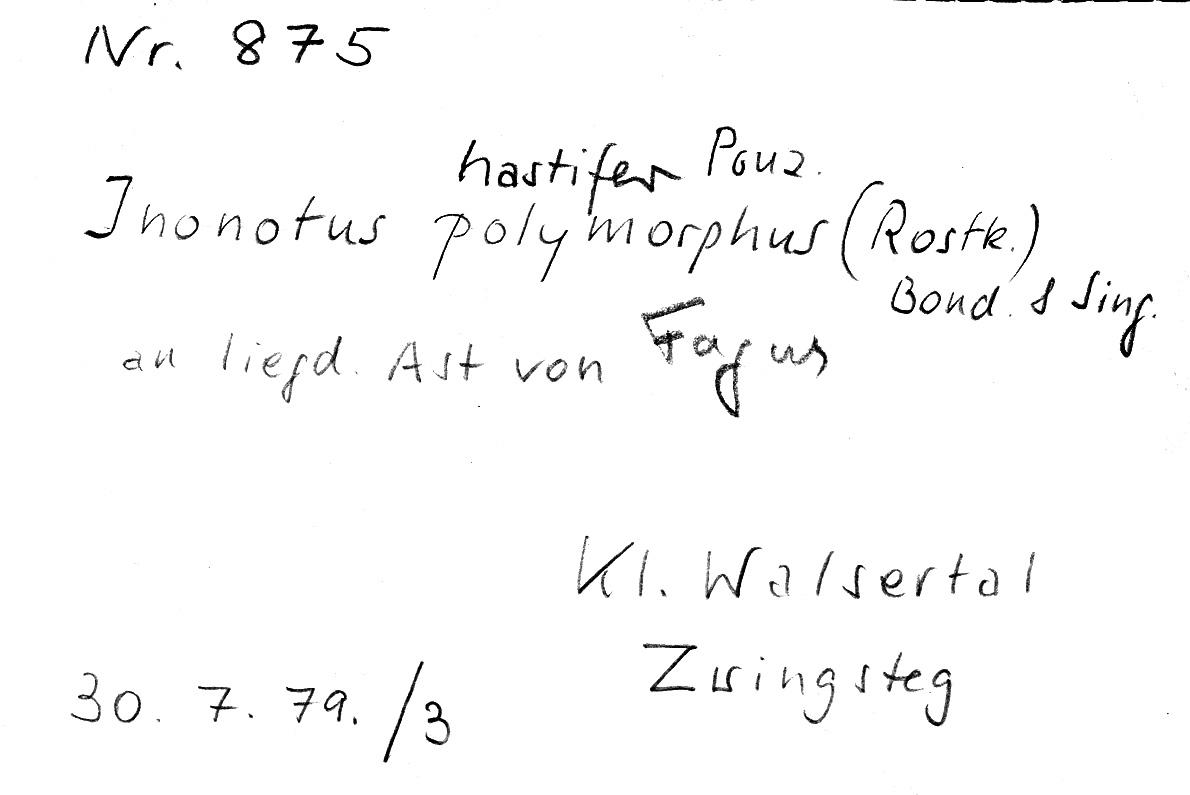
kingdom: Fungi
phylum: Basidiomycota
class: Agaricomycetes
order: Hymenochaetales
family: Hymenochaetaceae
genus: Inonotus
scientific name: Inonotus hastifer
